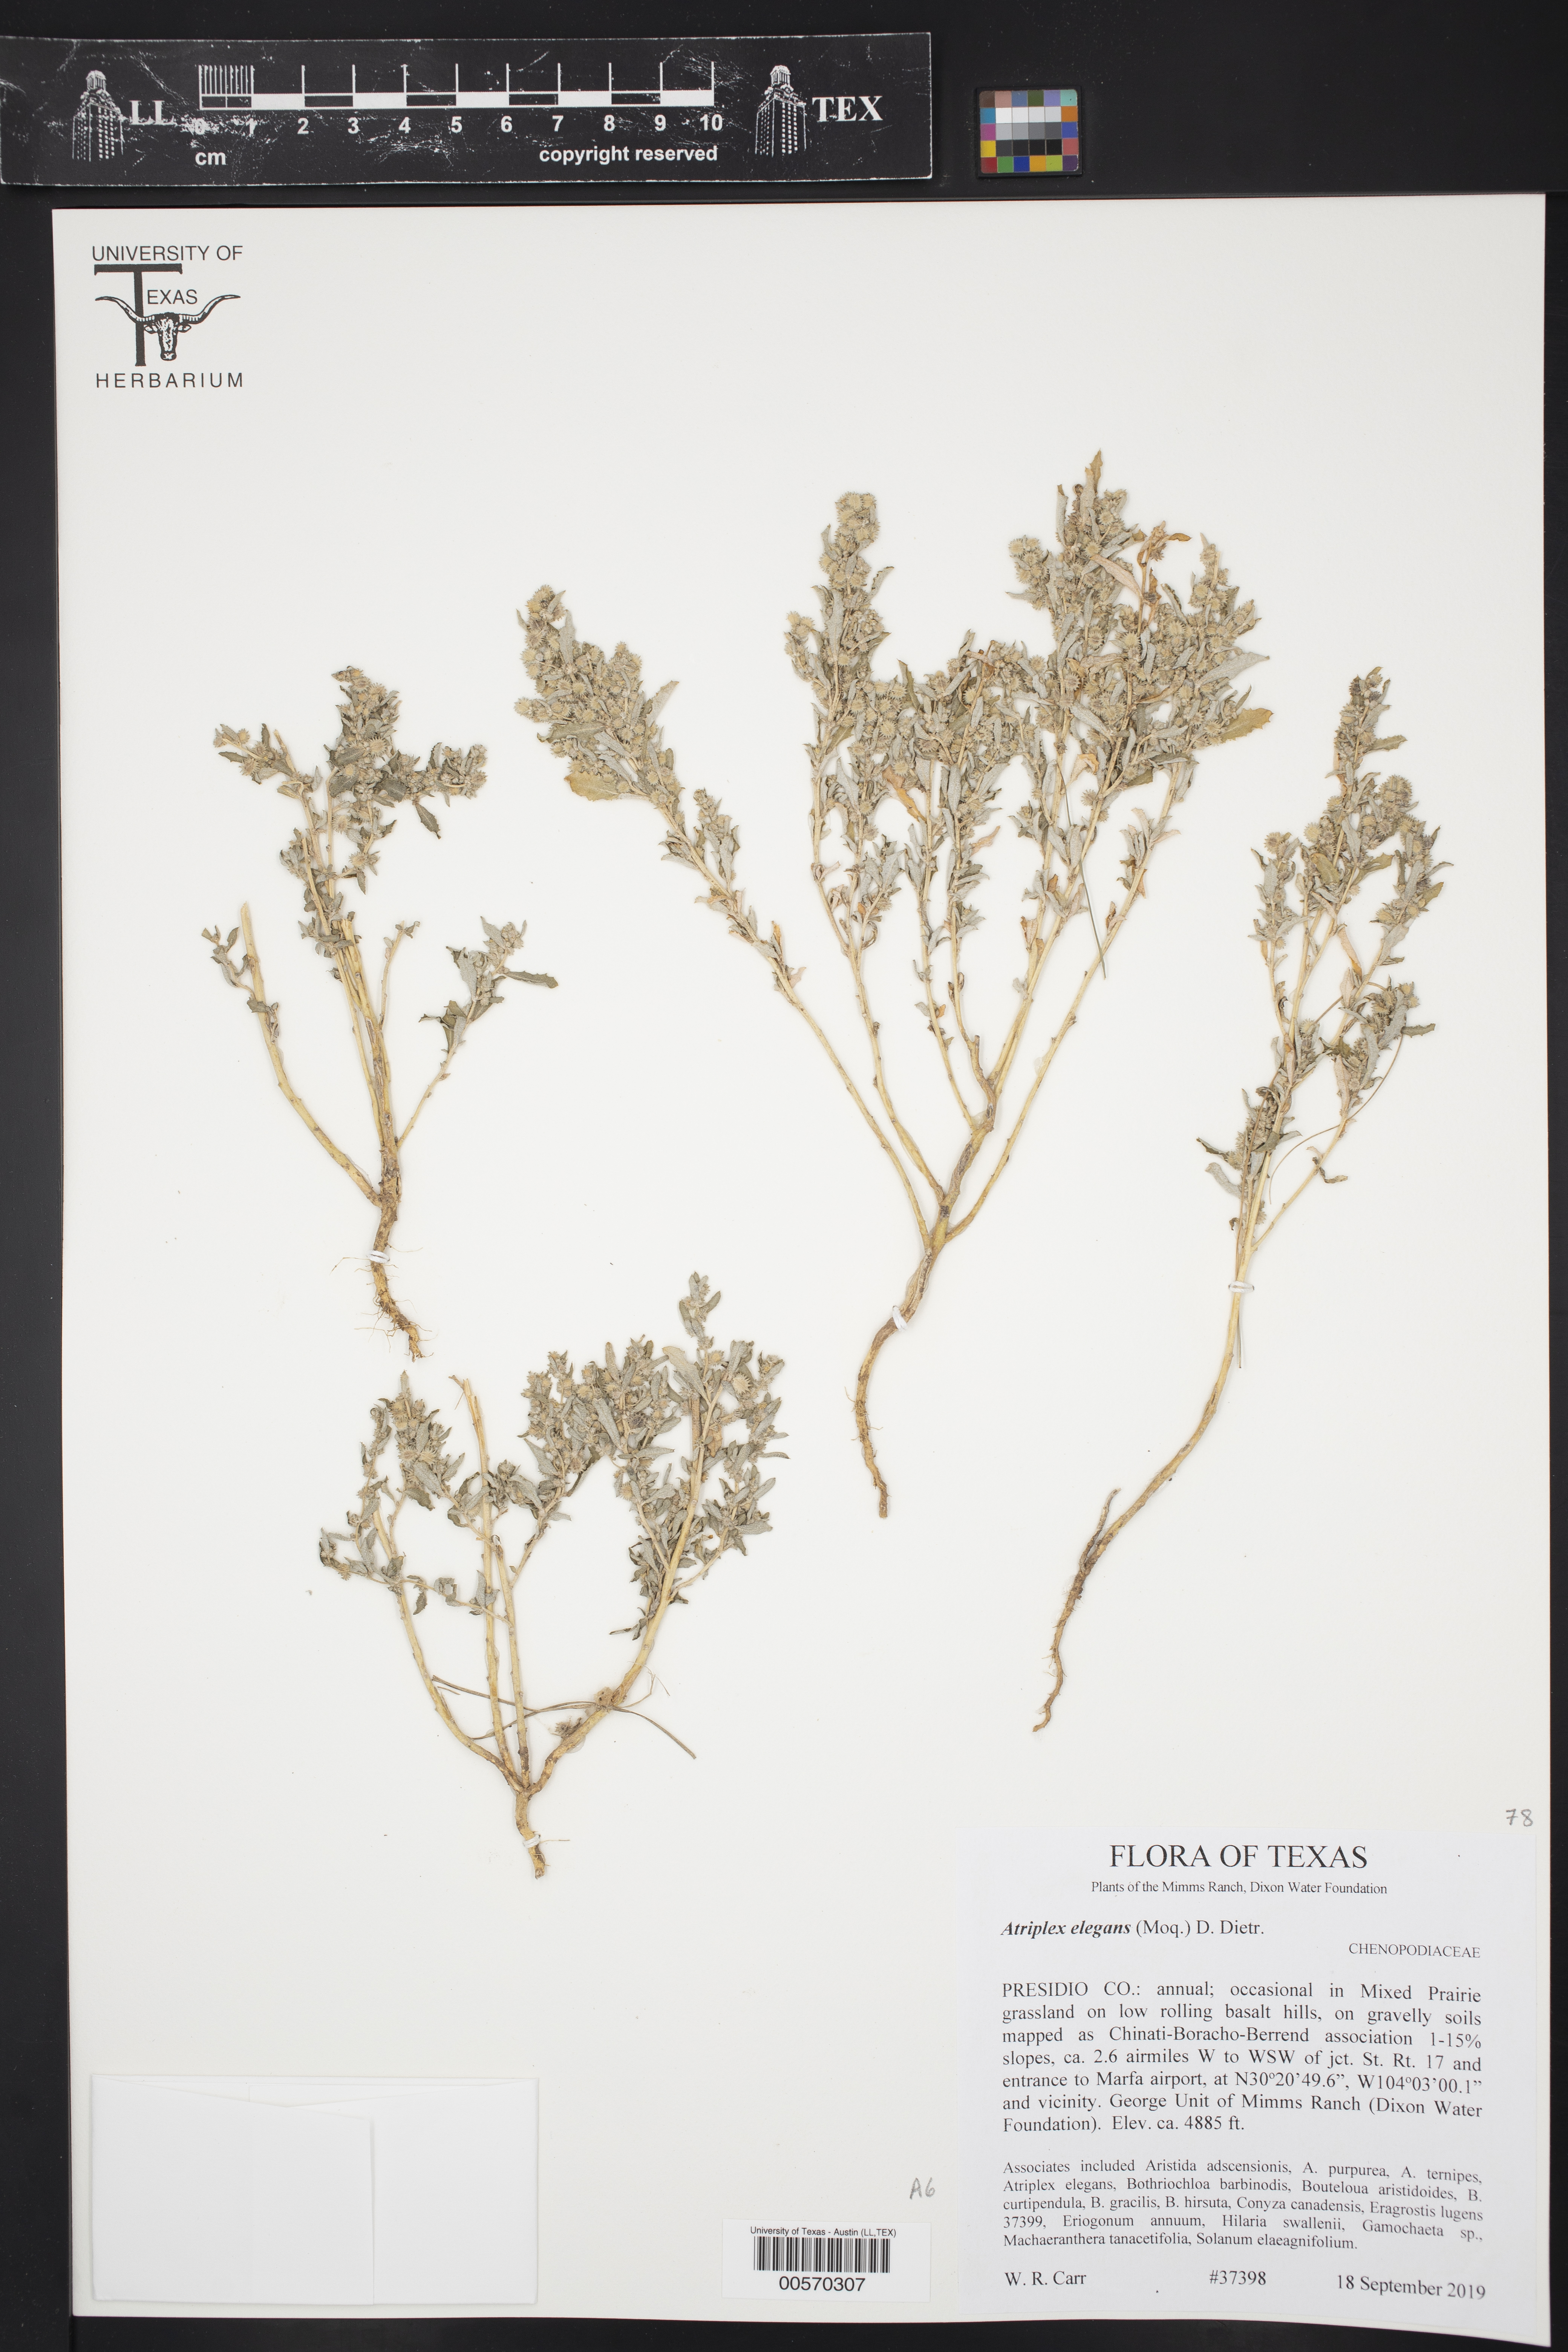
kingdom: Plantae
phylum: Tracheophyta
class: Magnoliopsida
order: Caryophyllales
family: Amaranthaceae
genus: Atriplex
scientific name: Atriplex elegans
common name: Wheelscale orach
